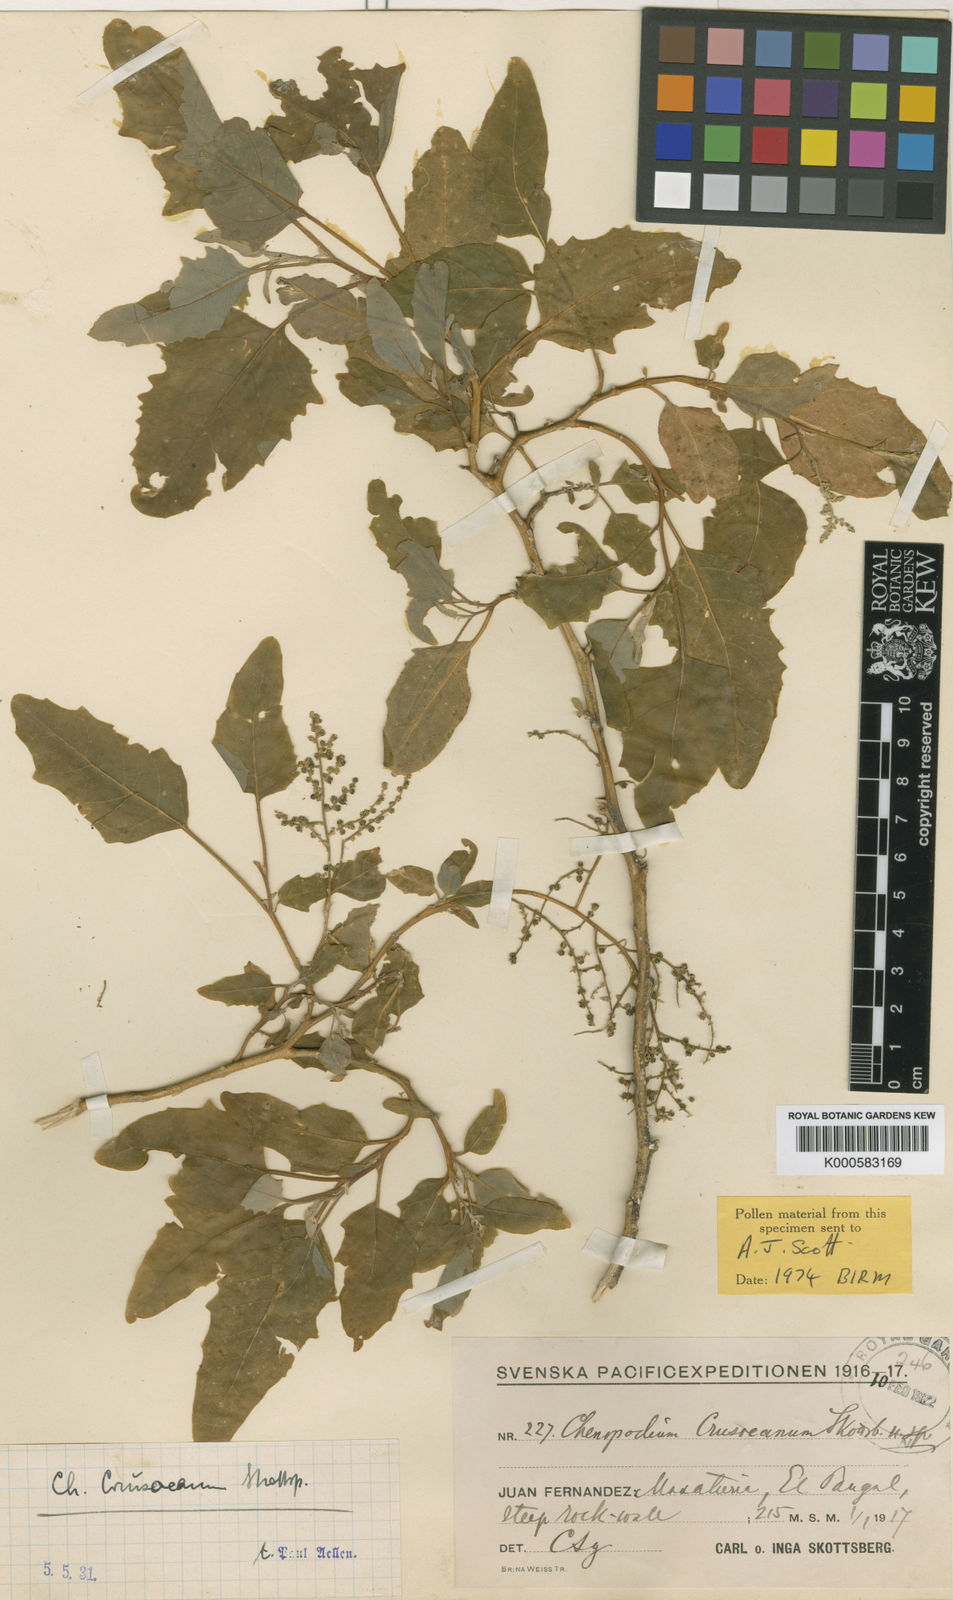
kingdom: Plantae
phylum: Tracheophyta
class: Magnoliopsida
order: Caryophyllales
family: Amaranthaceae
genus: Chenopodium
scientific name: Chenopodium crusoeanum
